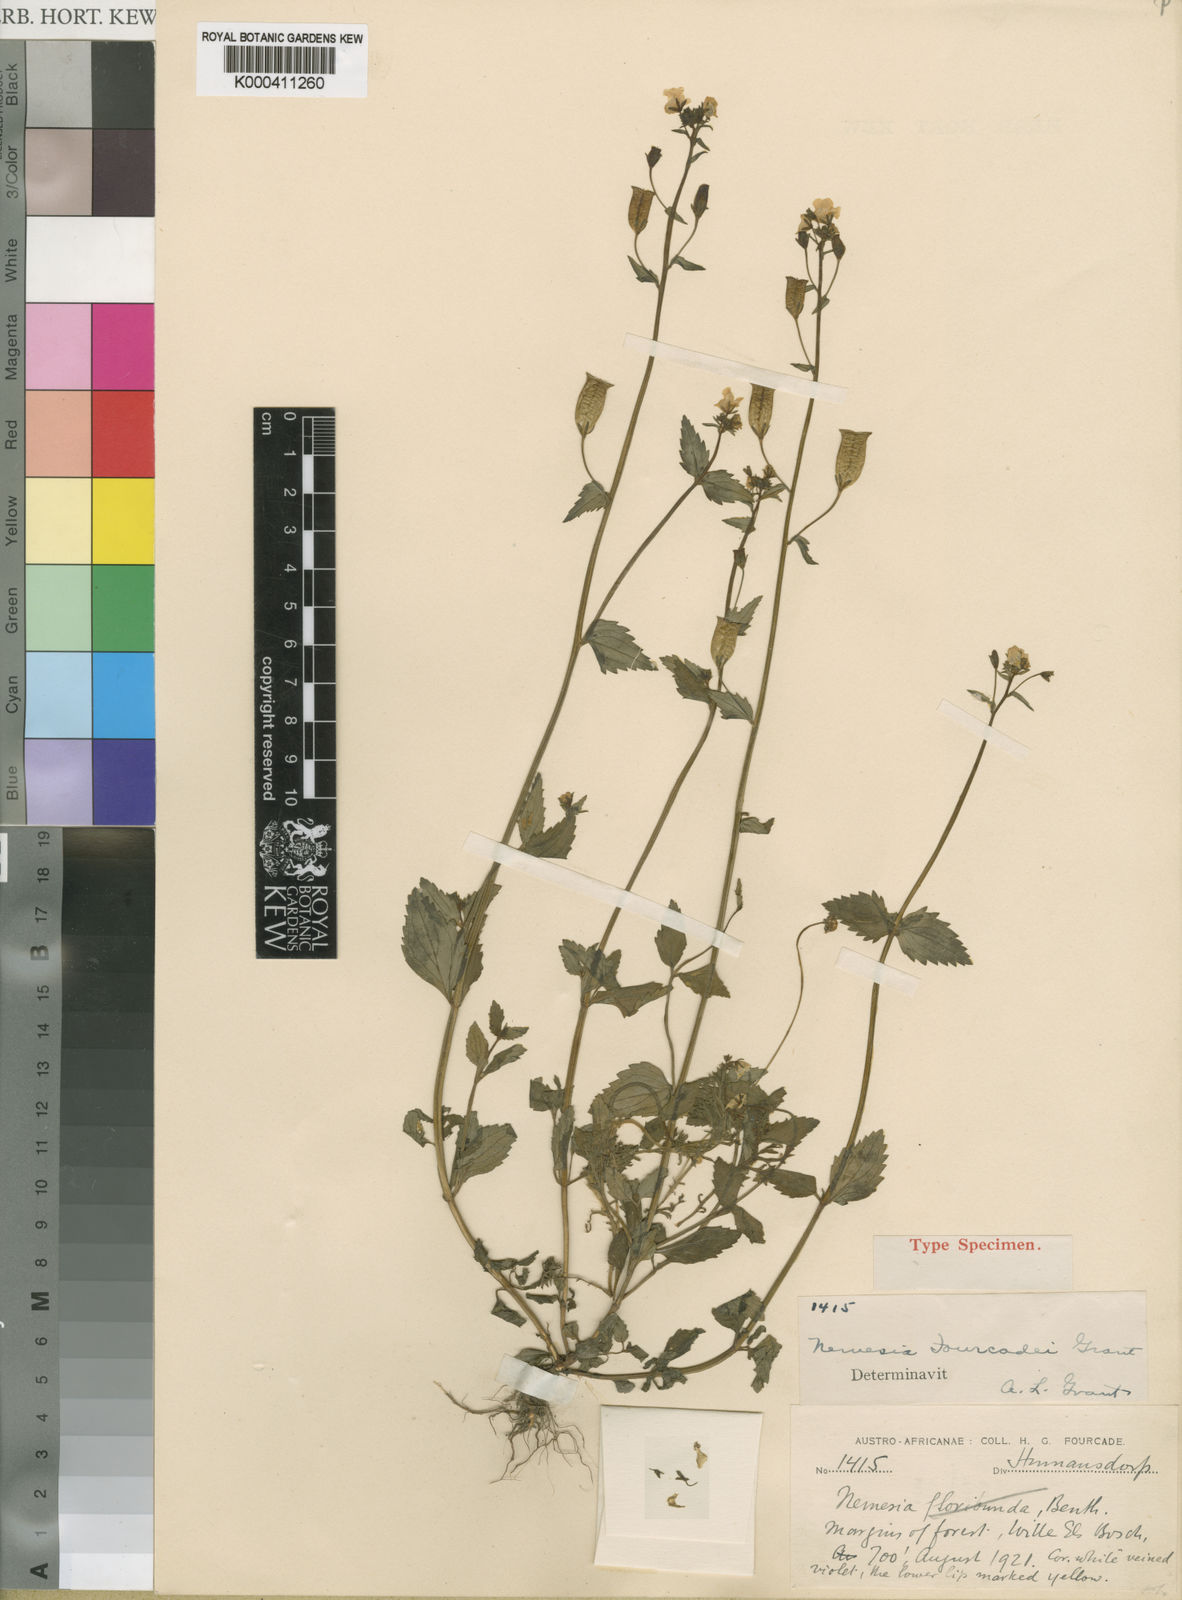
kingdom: Plantae
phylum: Tracheophyta
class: Magnoliopsida
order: Lamiales
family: Scrophulariaceae
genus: Nemesia
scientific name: Nemesia
